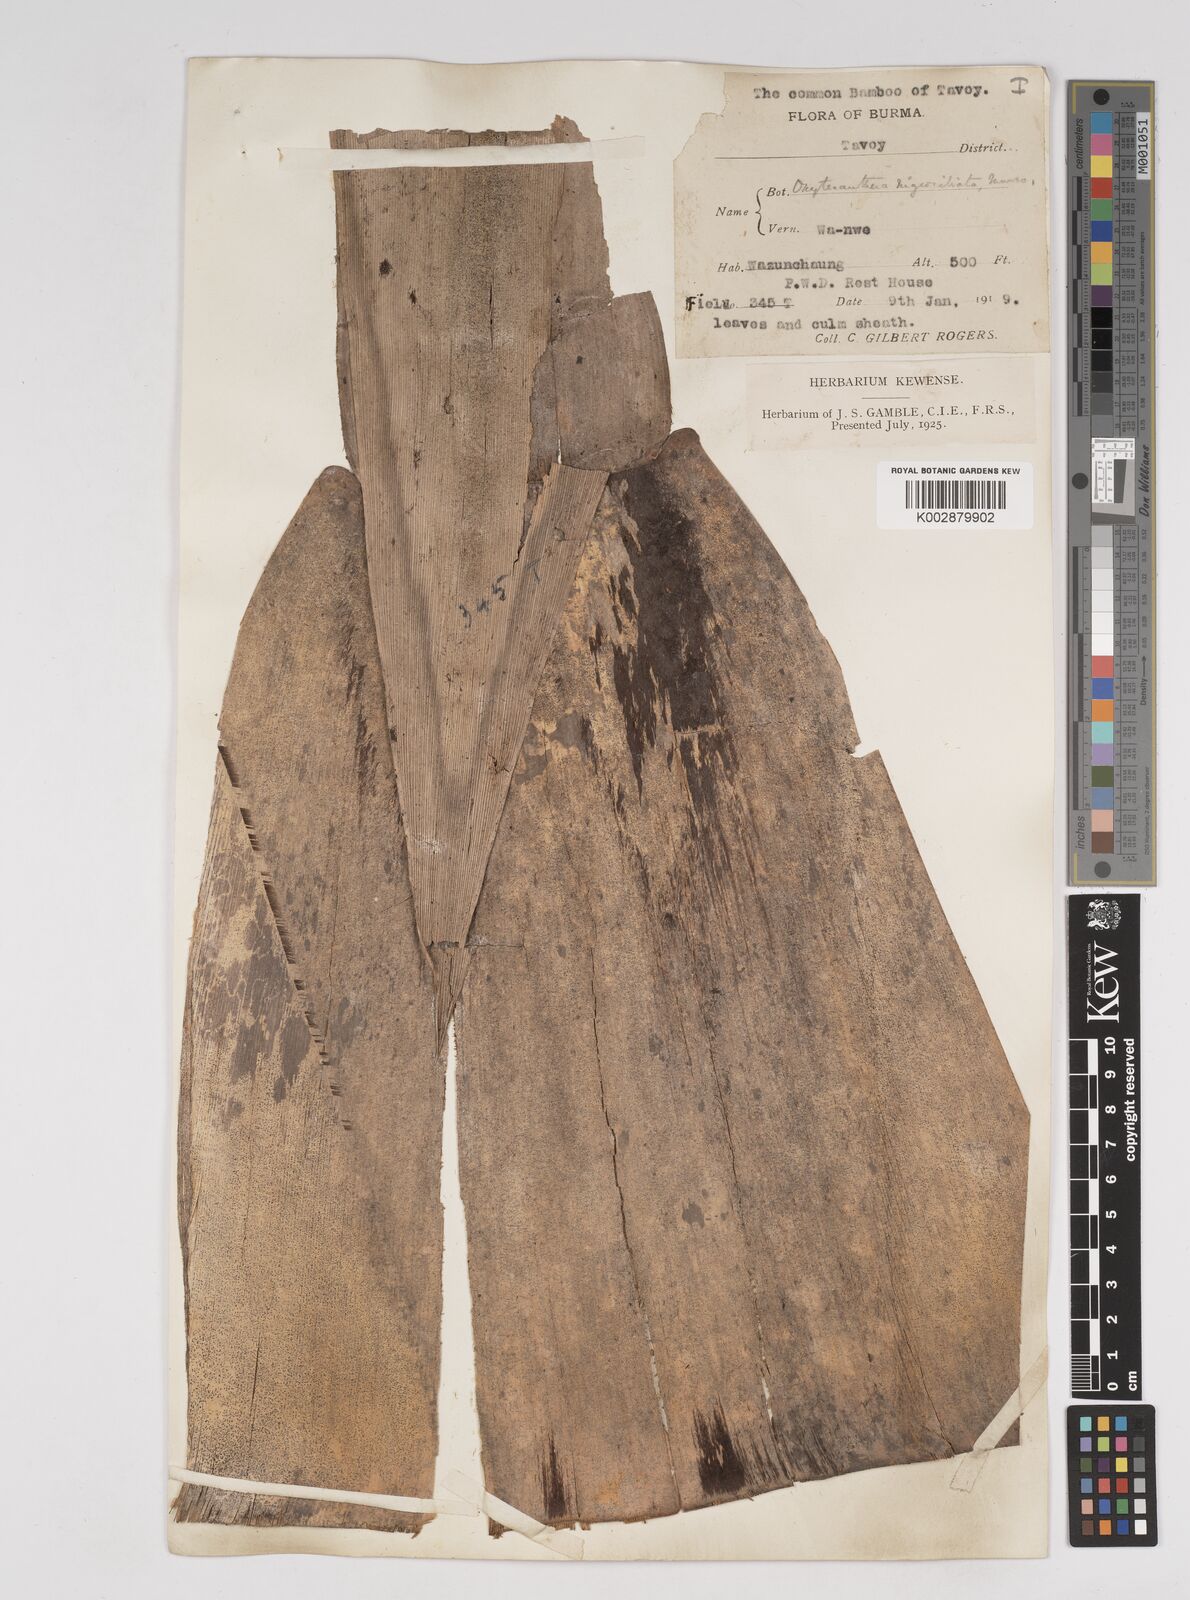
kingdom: Plantae
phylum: Tracheophyta
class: Liliopsida
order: Poales
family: Poaceae
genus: Gigantochloa
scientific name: Gigantochloa nigrociliata
